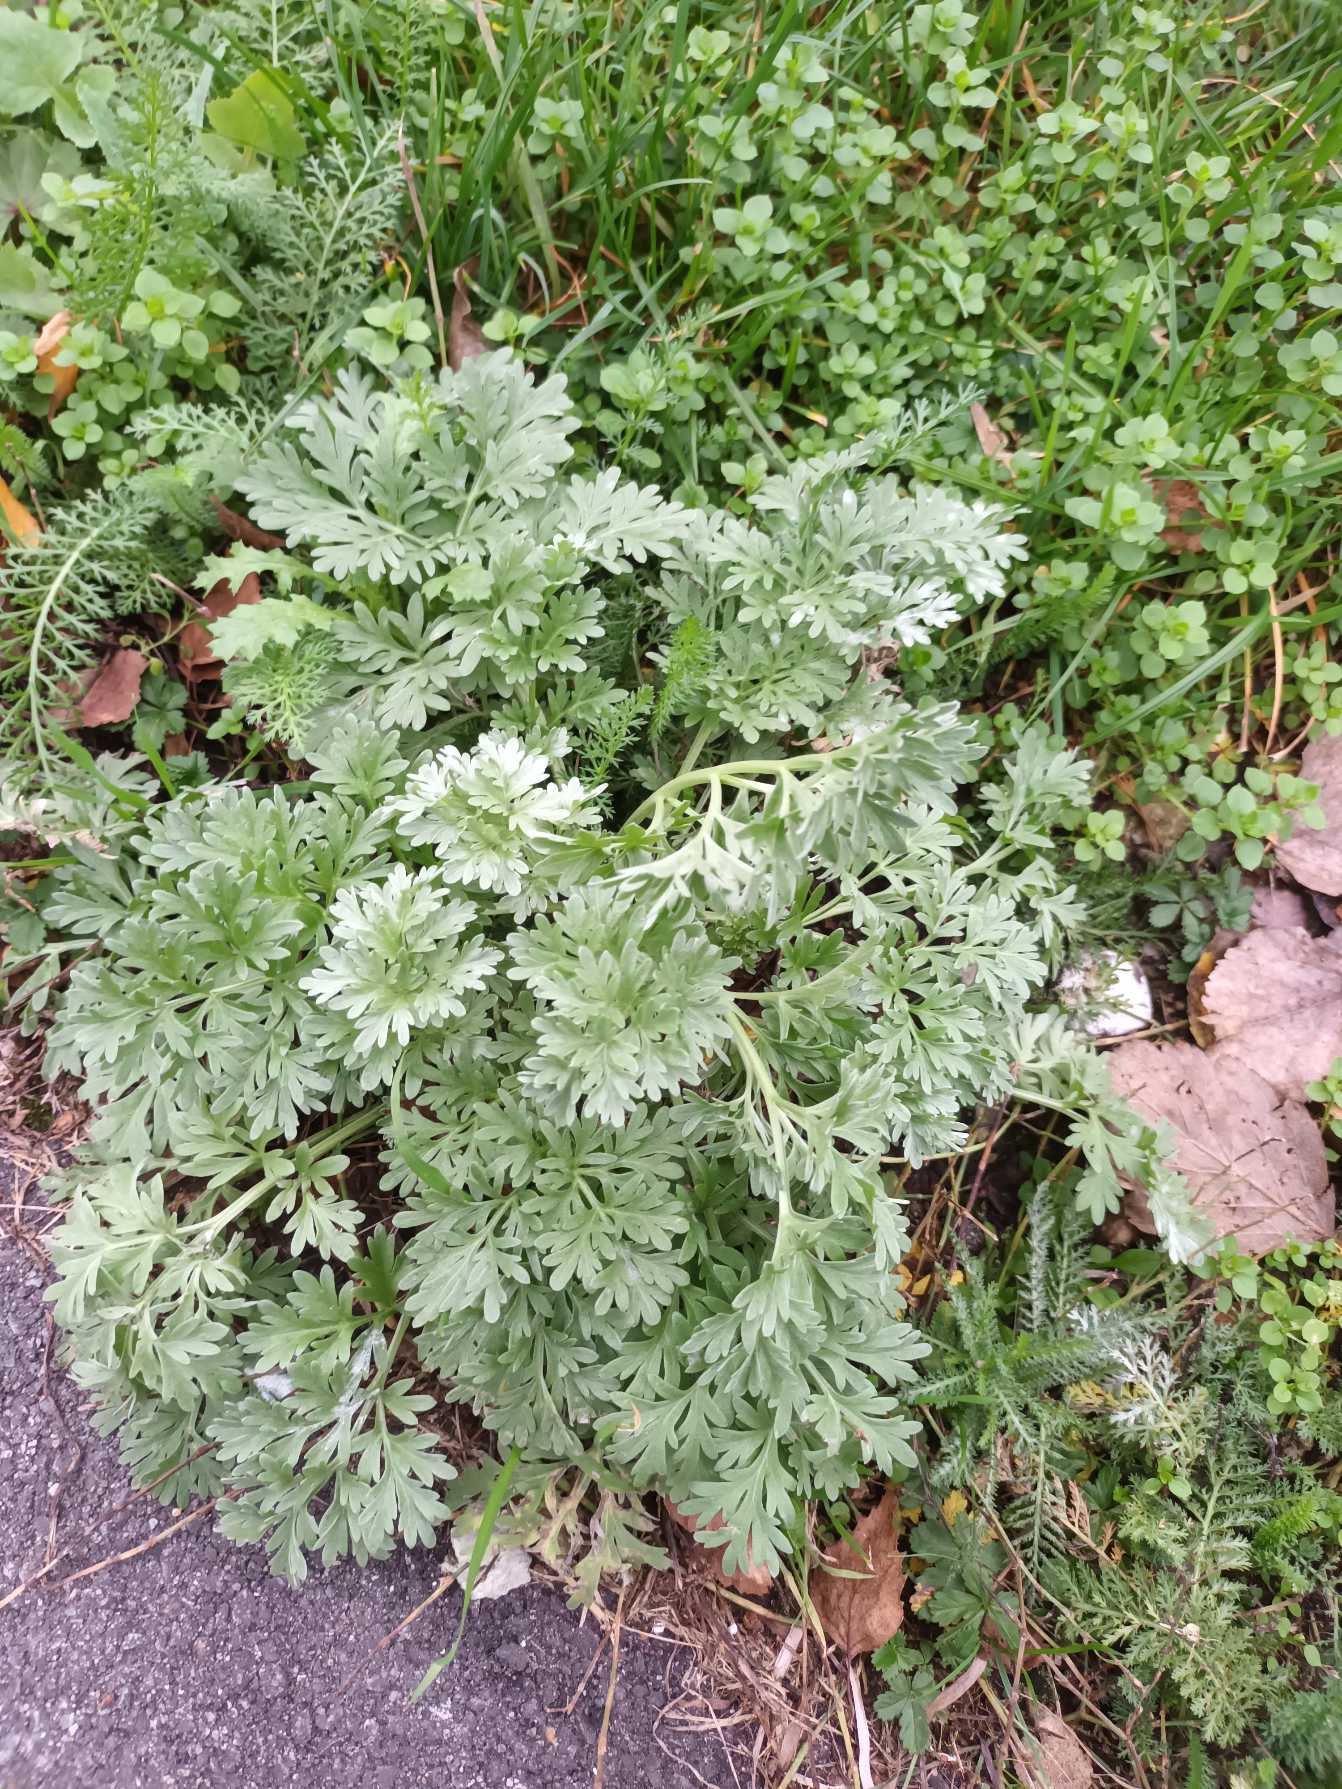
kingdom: Plantae
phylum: Tracheophyta
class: Magnoliopsida
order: Asterales
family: Asteraceae
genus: Artemisia
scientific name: Artemisia absinthium
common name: Havemalurt
